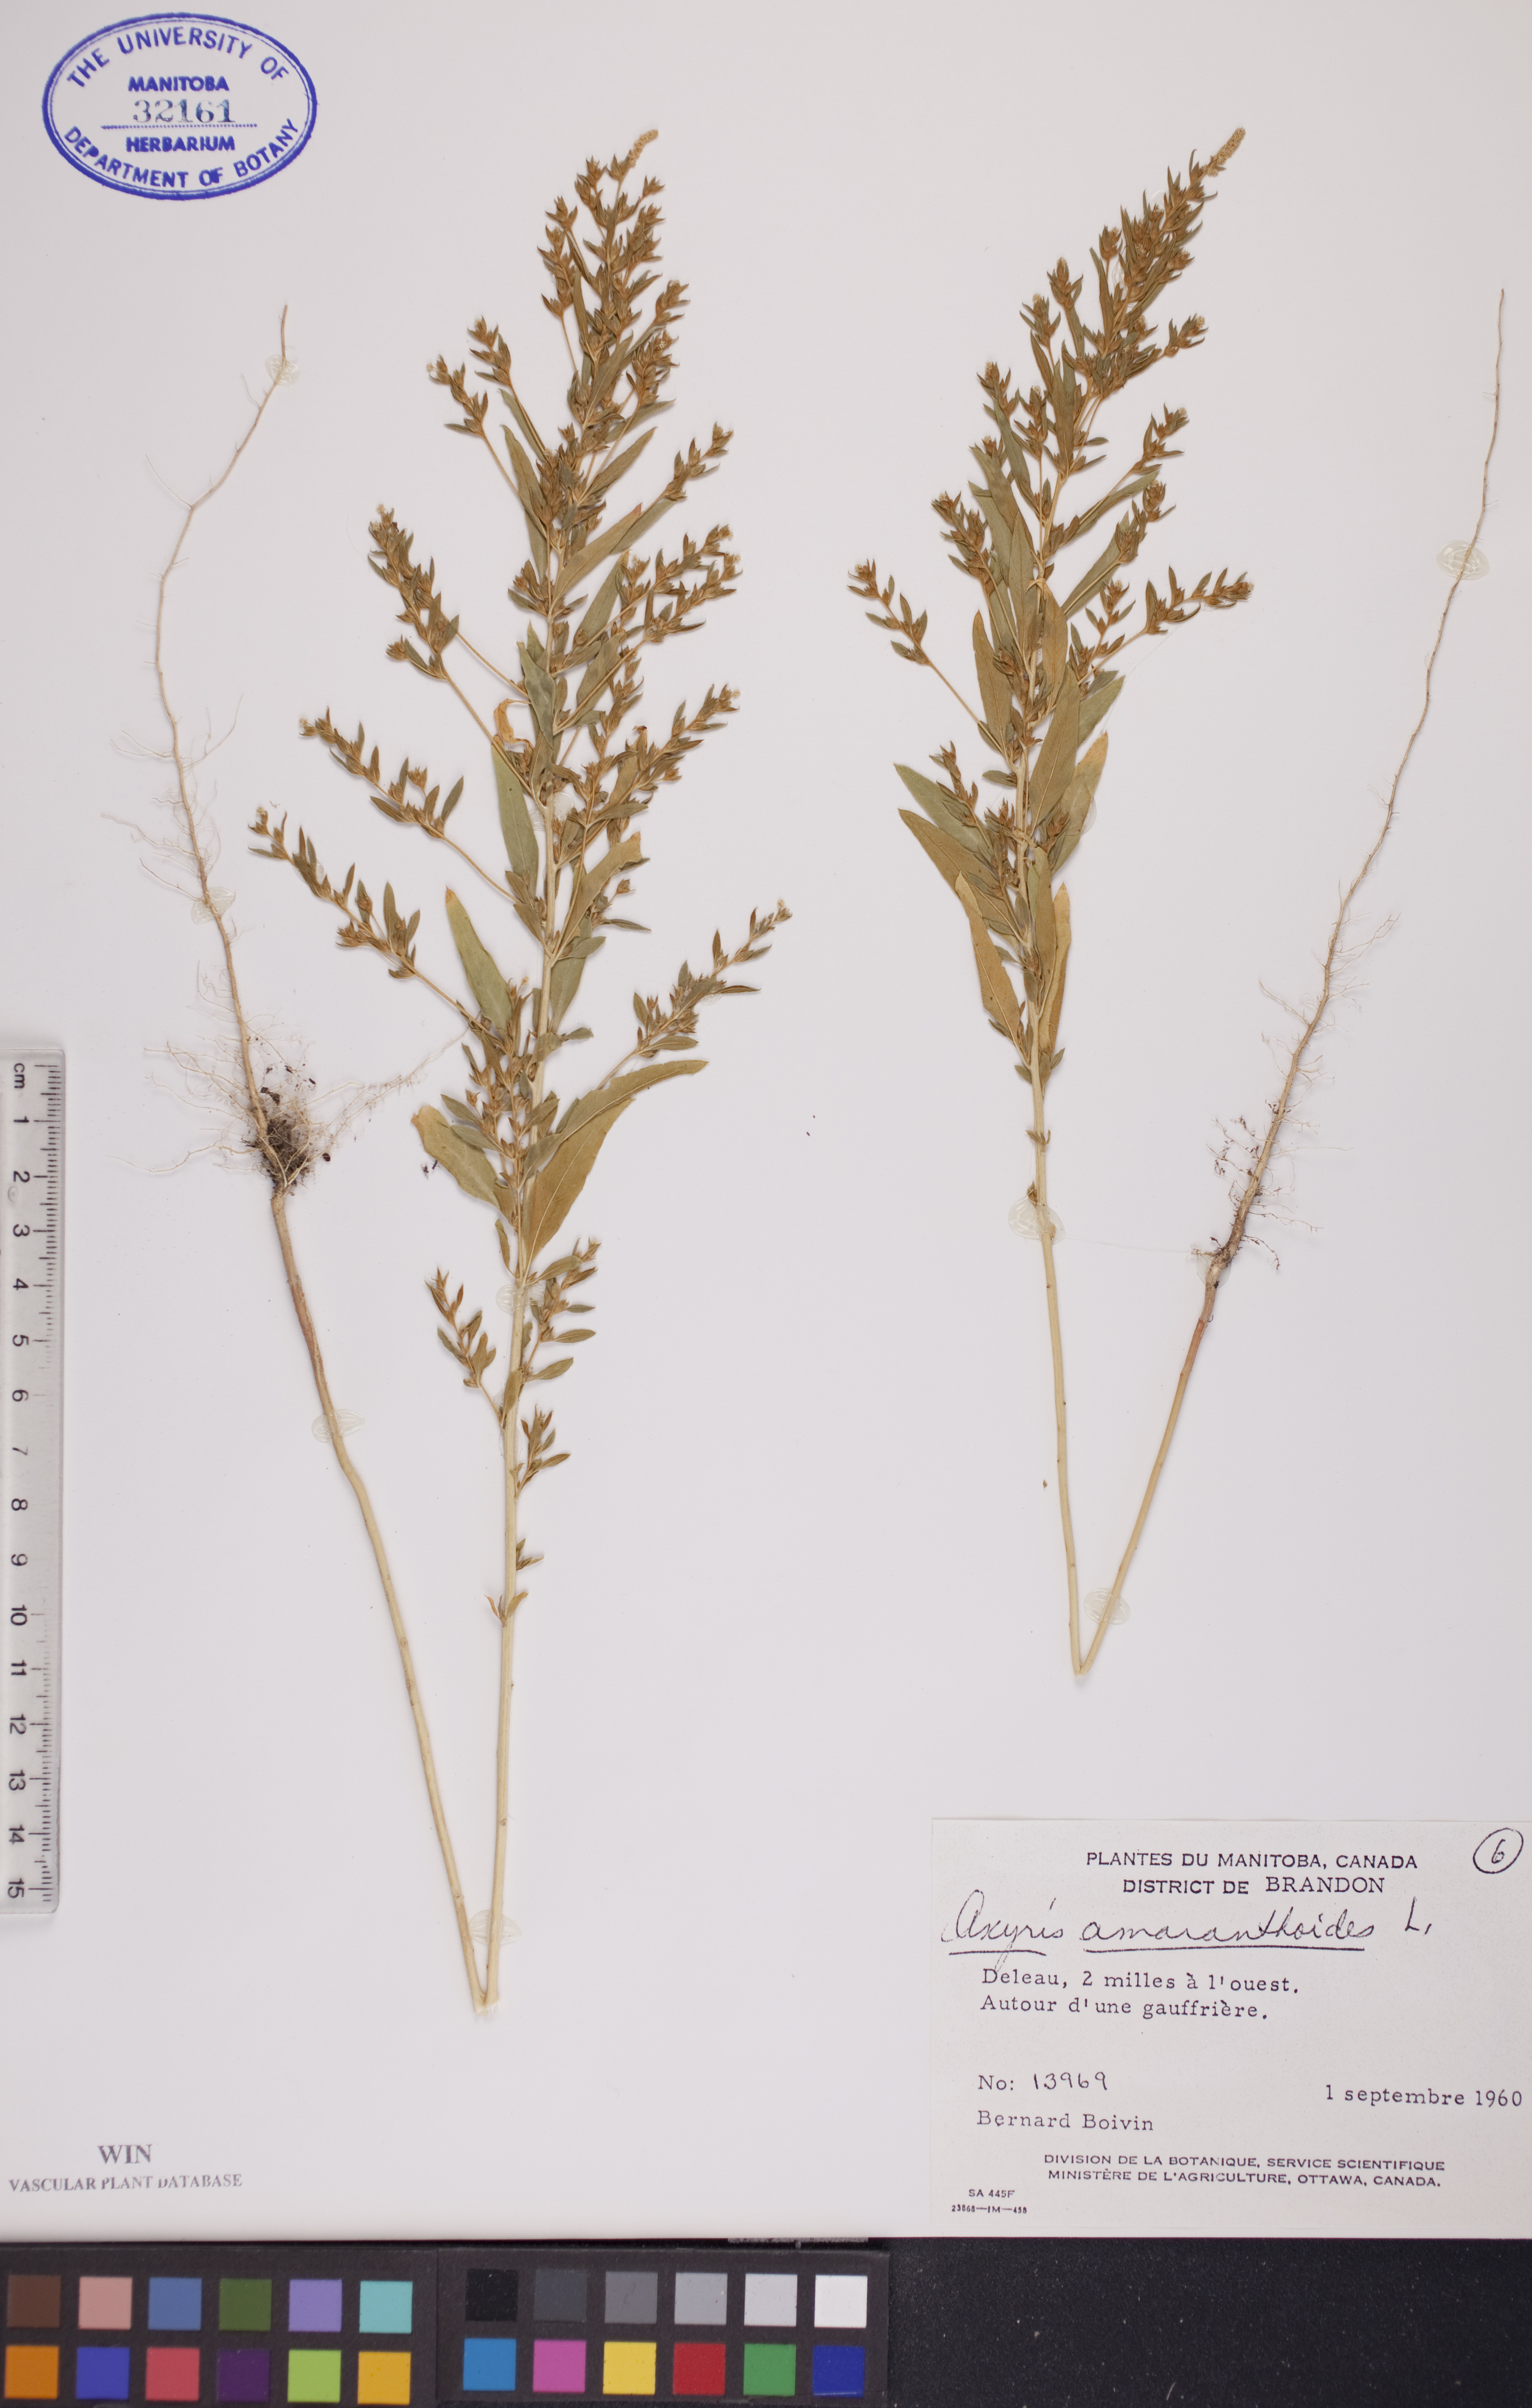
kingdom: Plantae
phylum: Tracheophyta
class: Magnoliopsida
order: Caryophyllales
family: Amaranthaceae
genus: Axyris
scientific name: Axyris amaranthoides
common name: Russian pigweed
